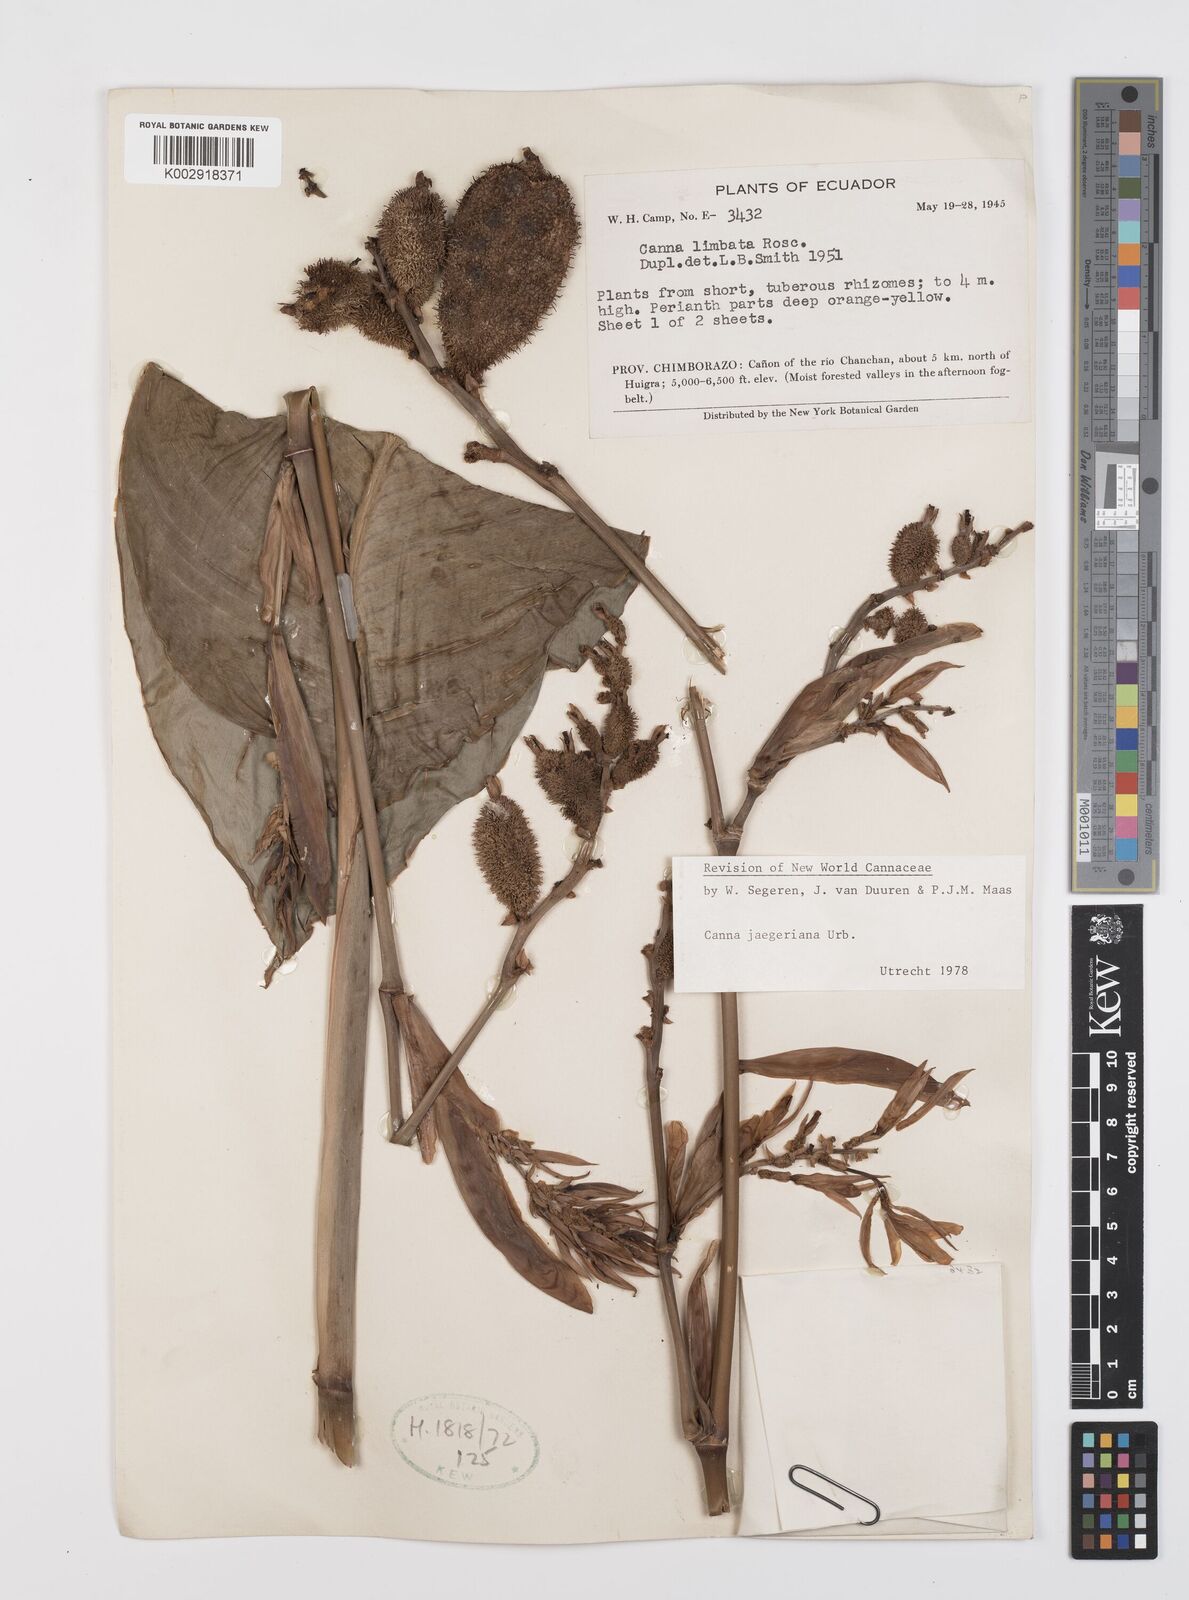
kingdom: Plantae
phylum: Tracheophyta
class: Liliopsida
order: Zingiberales
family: Cannaceae
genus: Canna
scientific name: Canna jaegeriana
